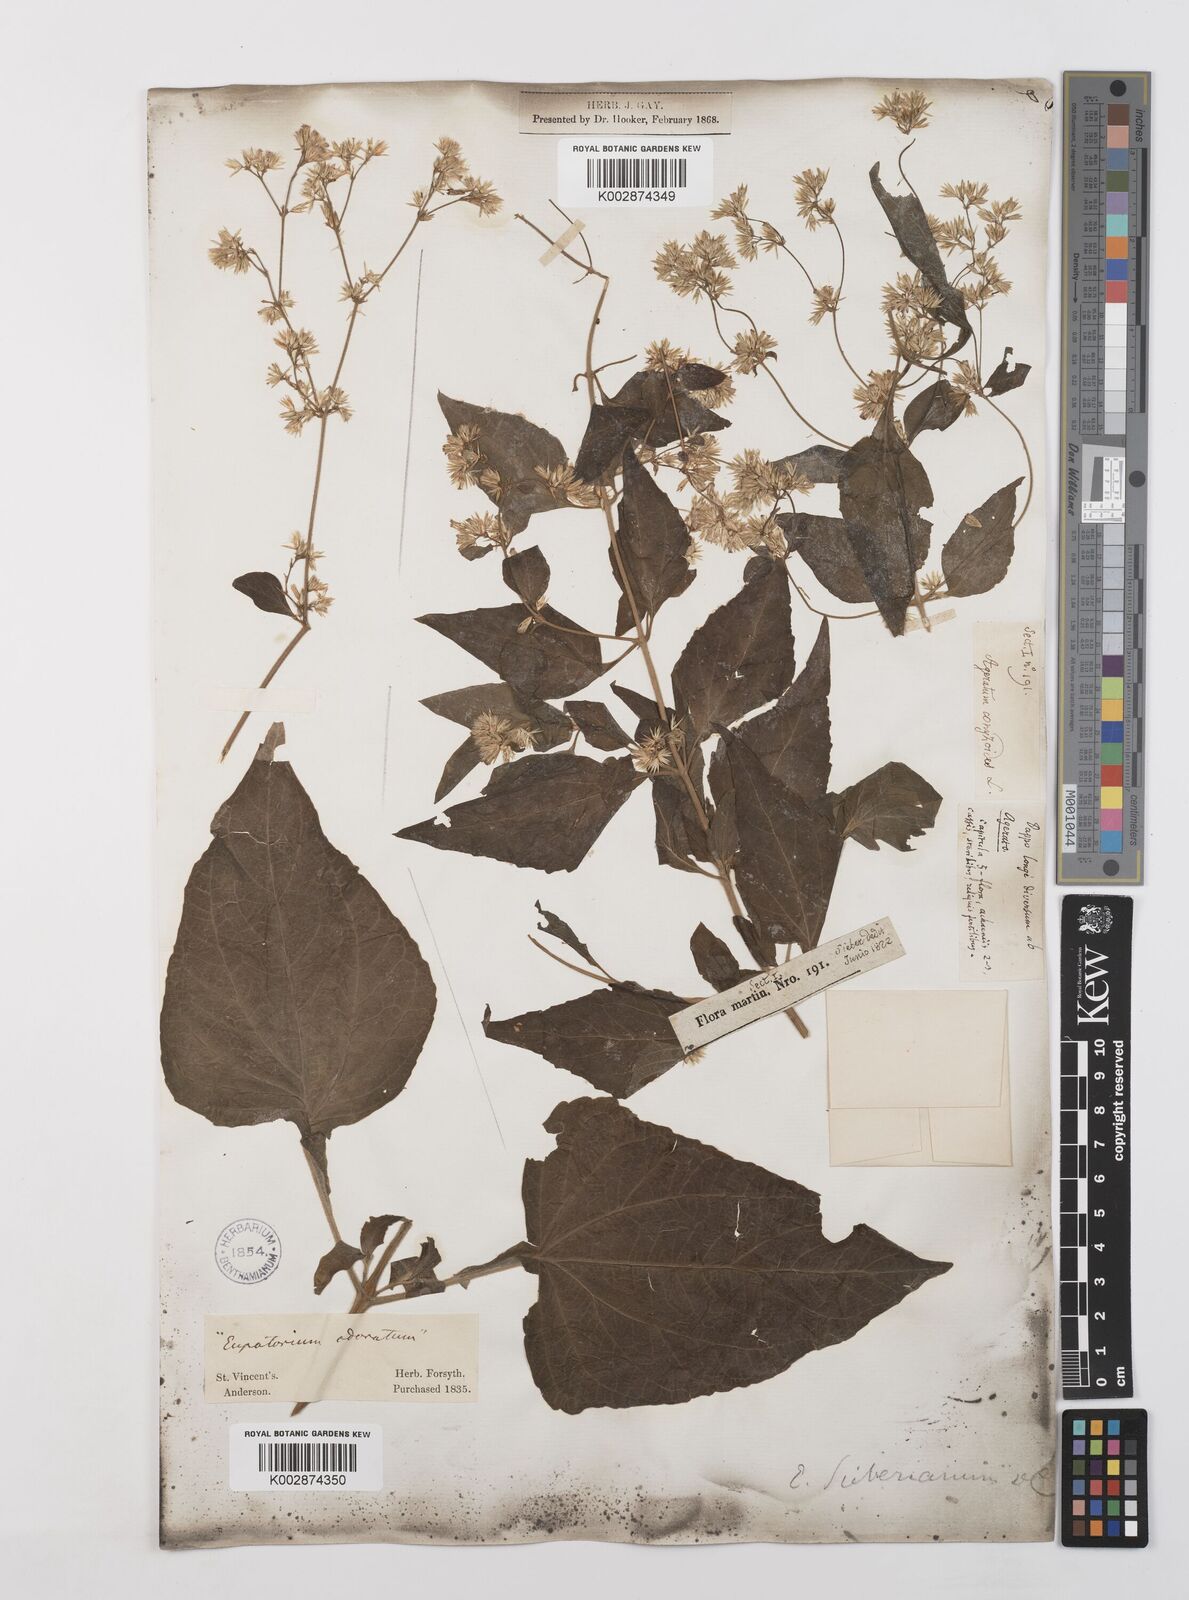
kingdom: Plantae
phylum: Tracheophyta
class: Magnoliopsida
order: Asterales
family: Asteraceae
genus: Condylidium
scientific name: Condylidium iresinoides
